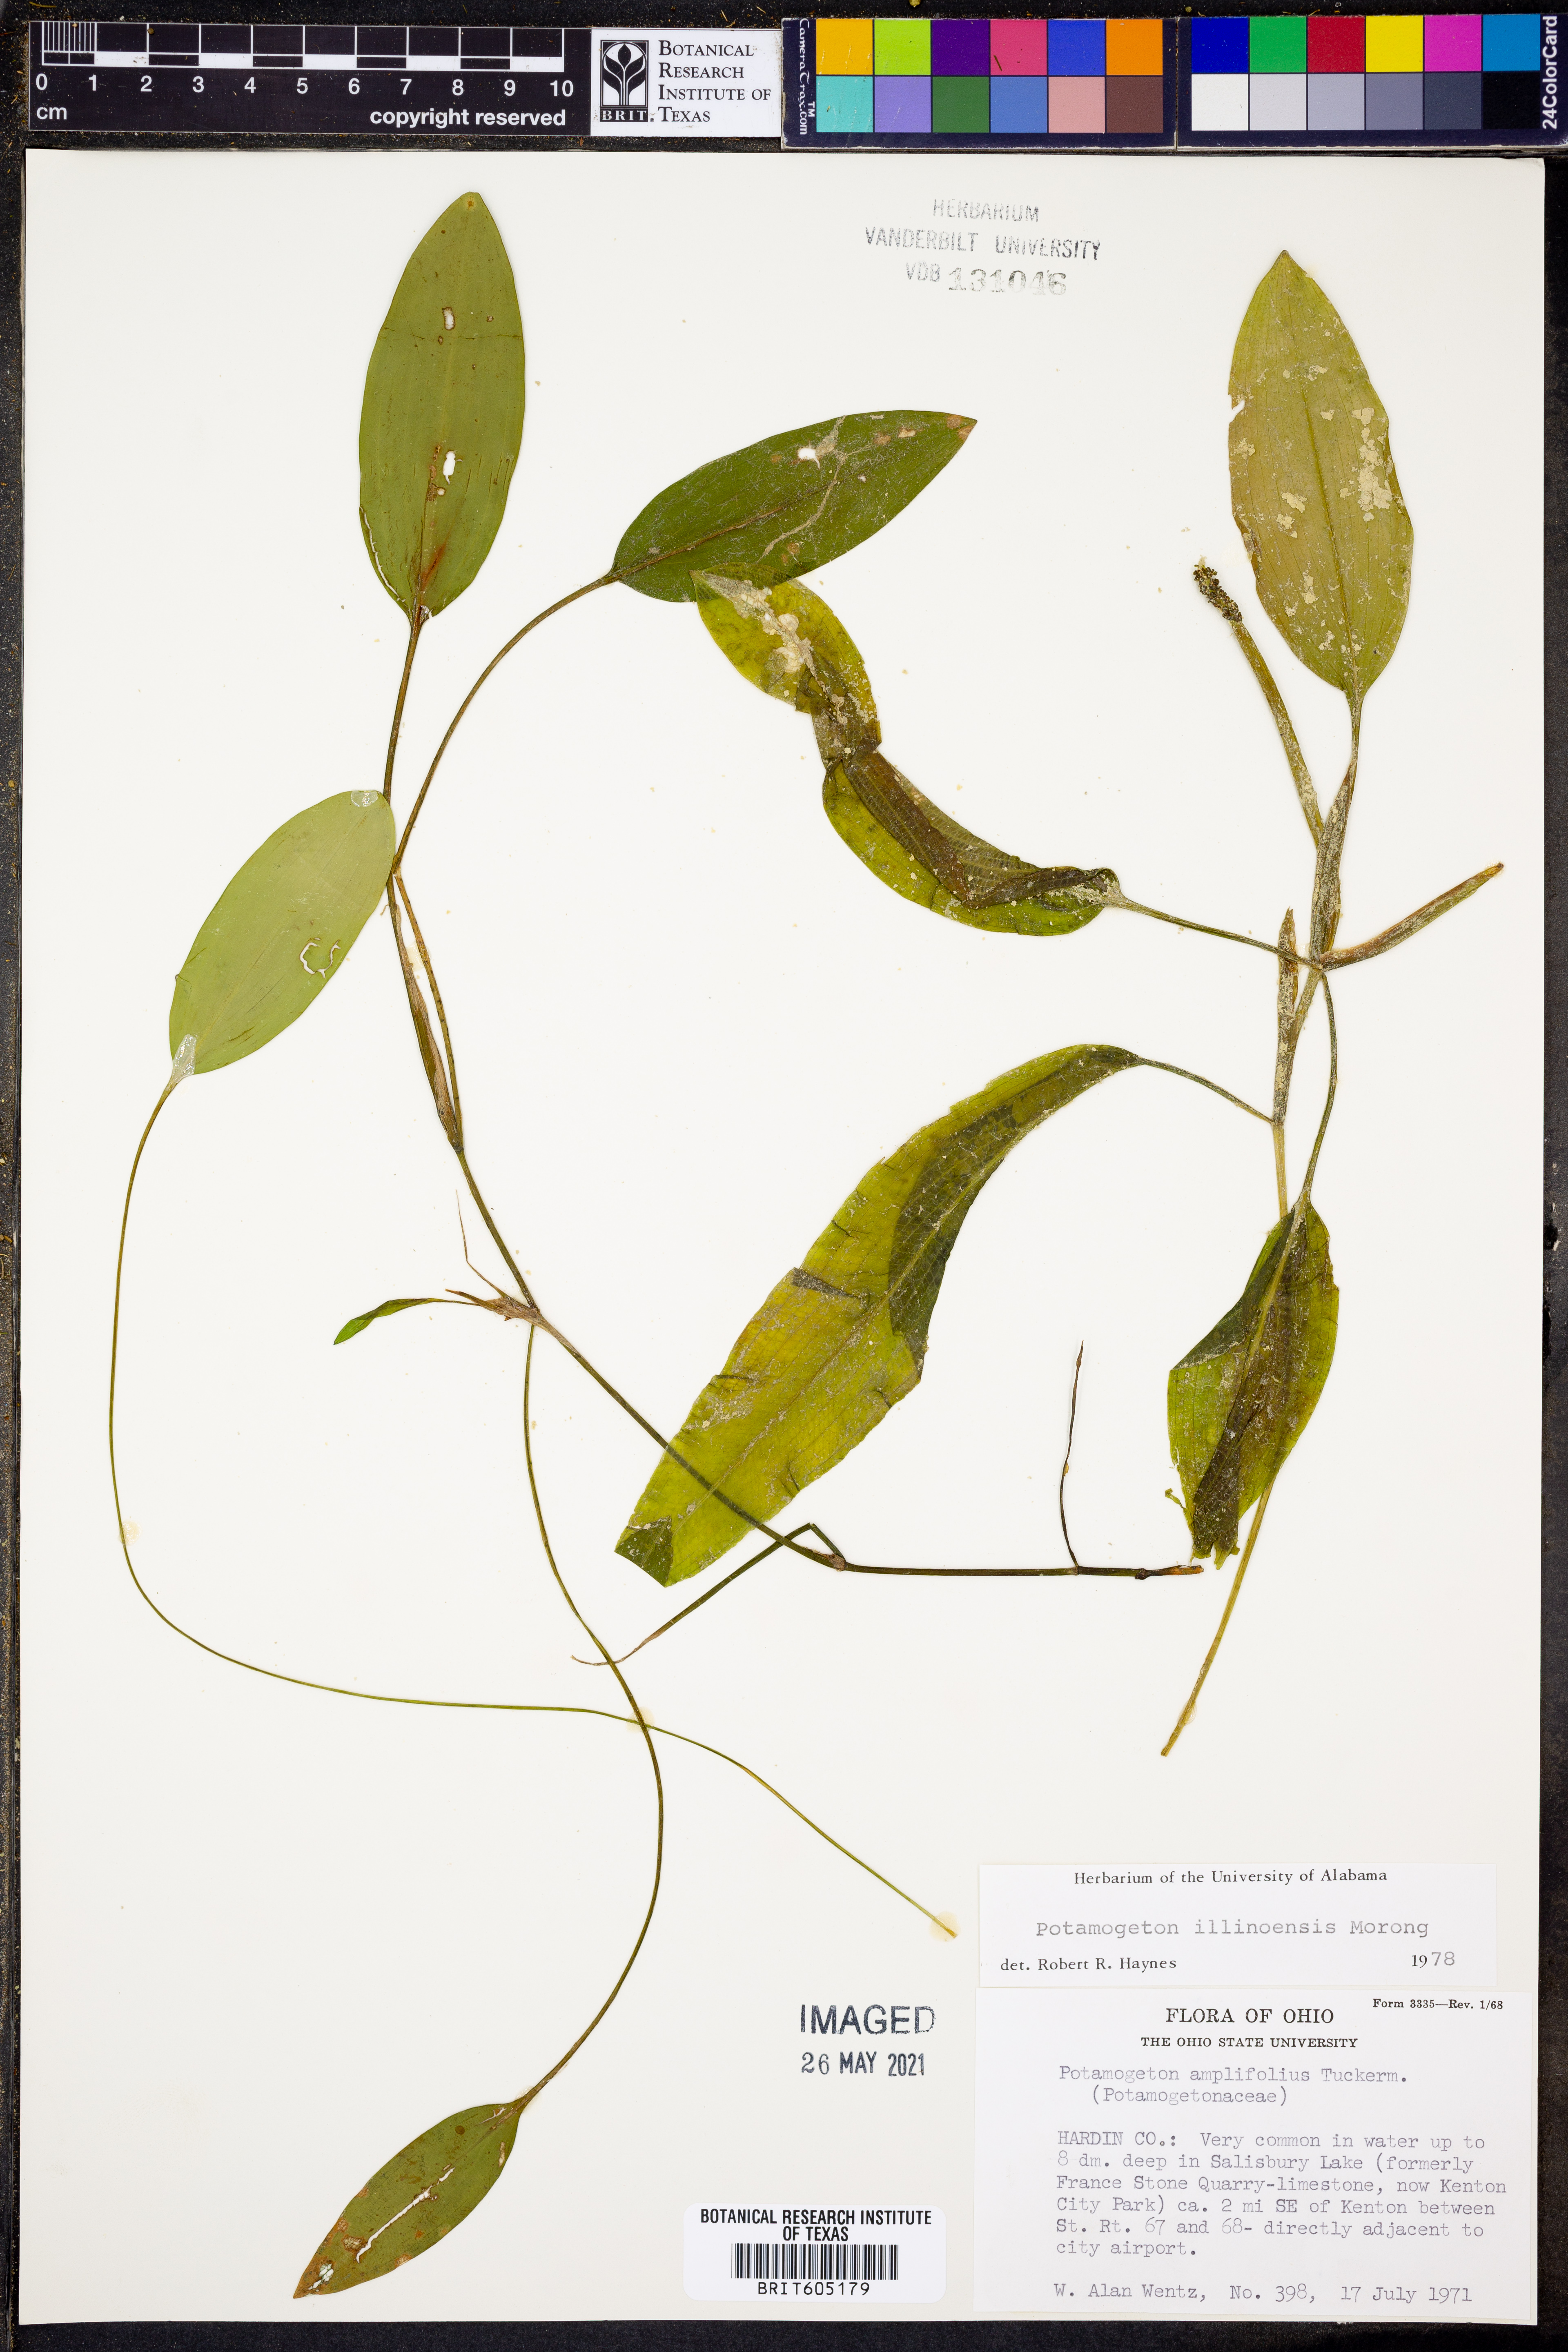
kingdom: Plantae
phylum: Tracheophyta
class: Liliopsida
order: Alismatales
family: Potamogetonaceae
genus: Potamogeton
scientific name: Potamogeton illinoensis
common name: Illinois pondweed
